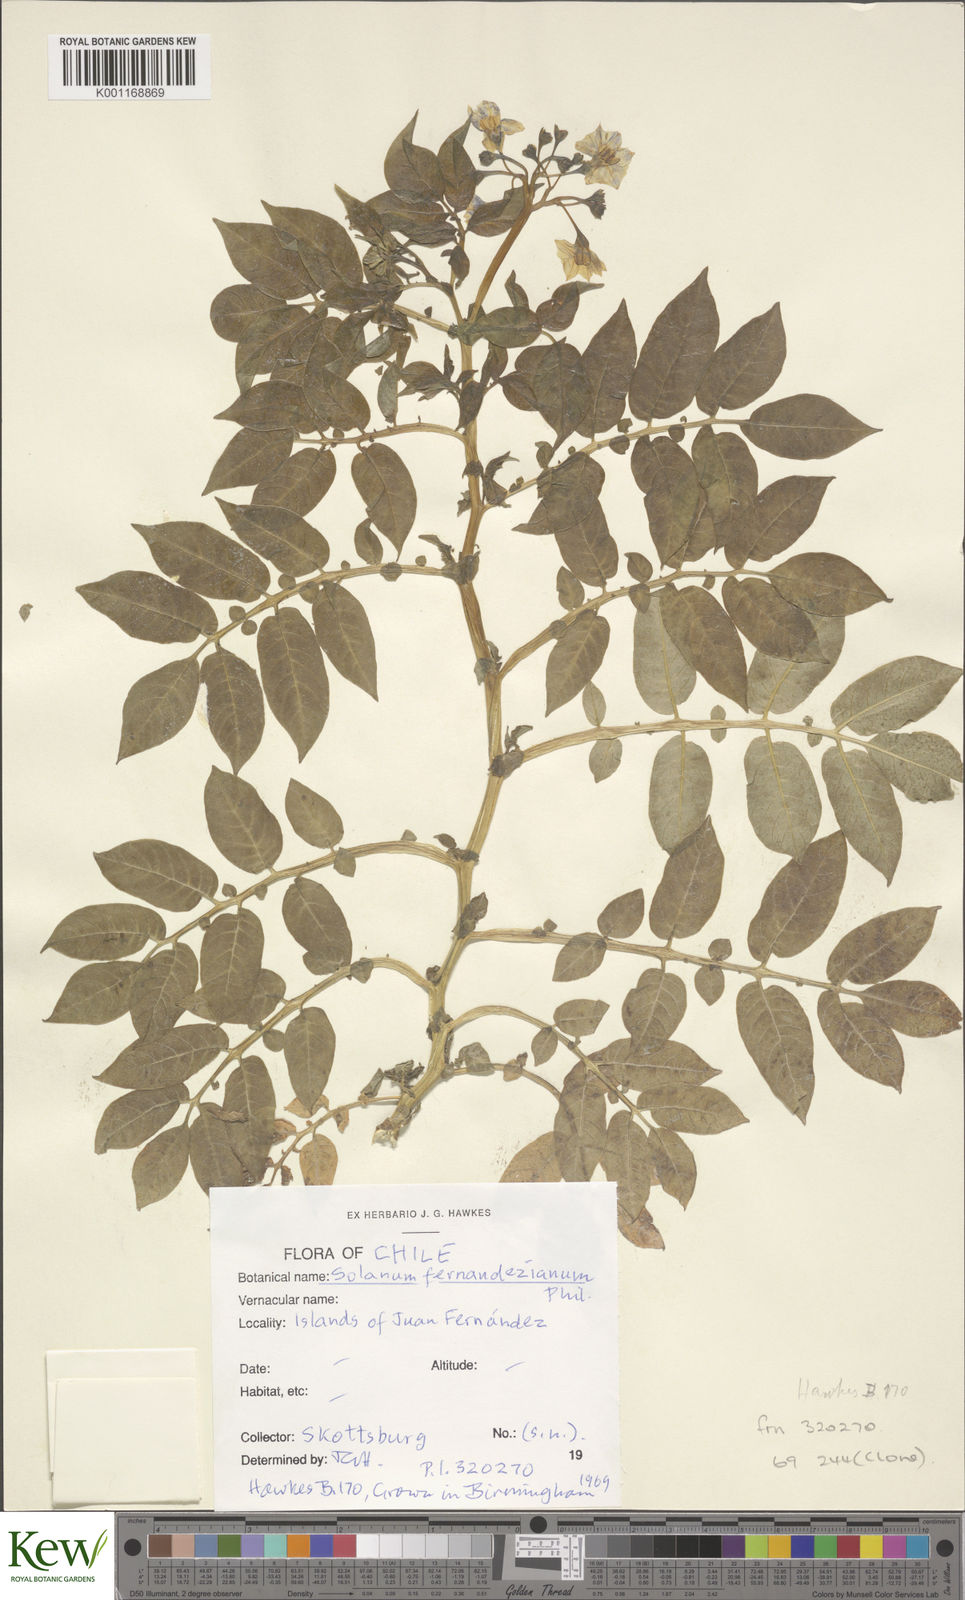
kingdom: Plantae
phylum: Tracheophyta
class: Magnoliopsida
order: Solanales
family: Solanaceae
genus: Solanum
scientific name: Solanum fernandezianum
